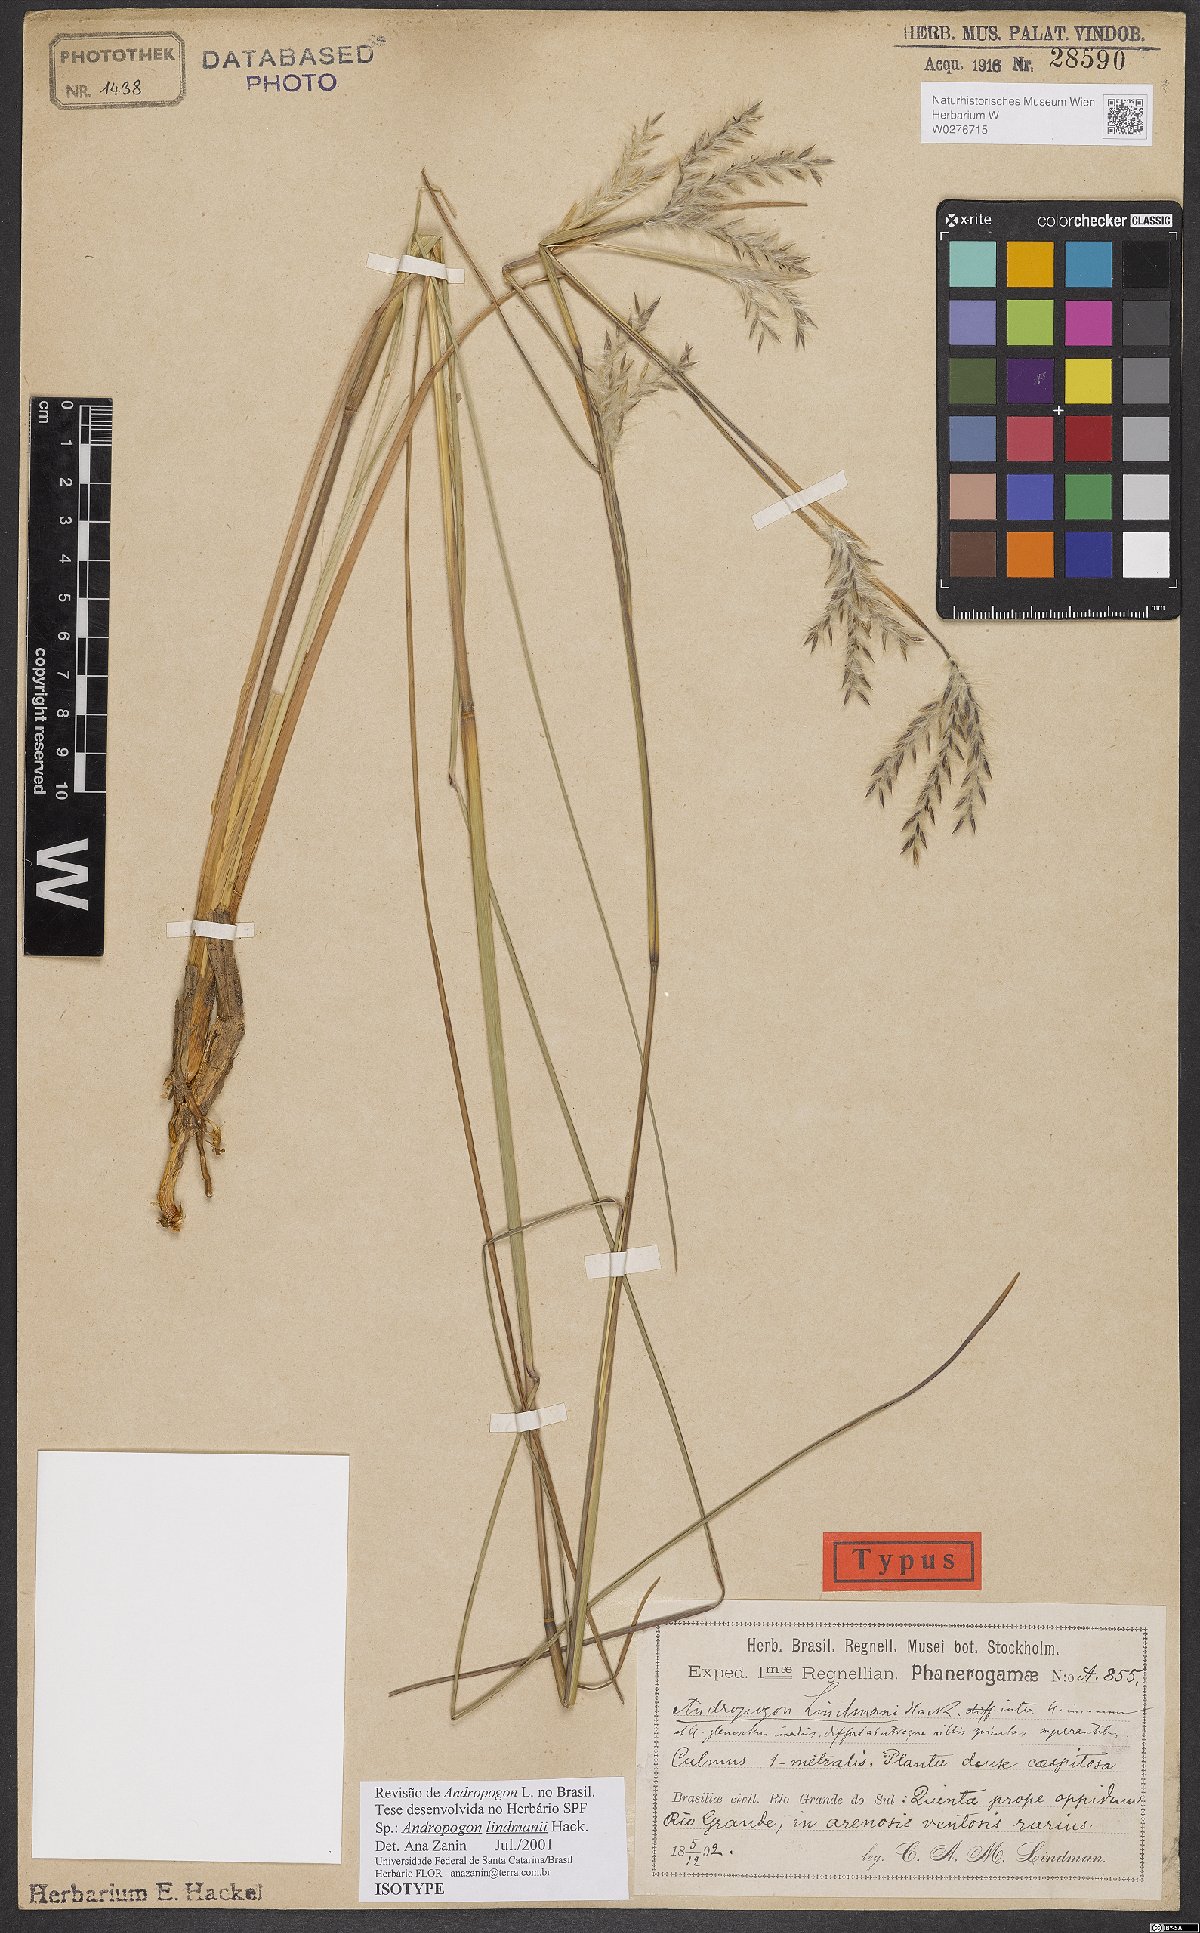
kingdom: Plantae
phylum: Tracheophyta
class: Liliopsida
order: Poales
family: Poaceae
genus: Andropogon
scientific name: Andropogon lindmanii
